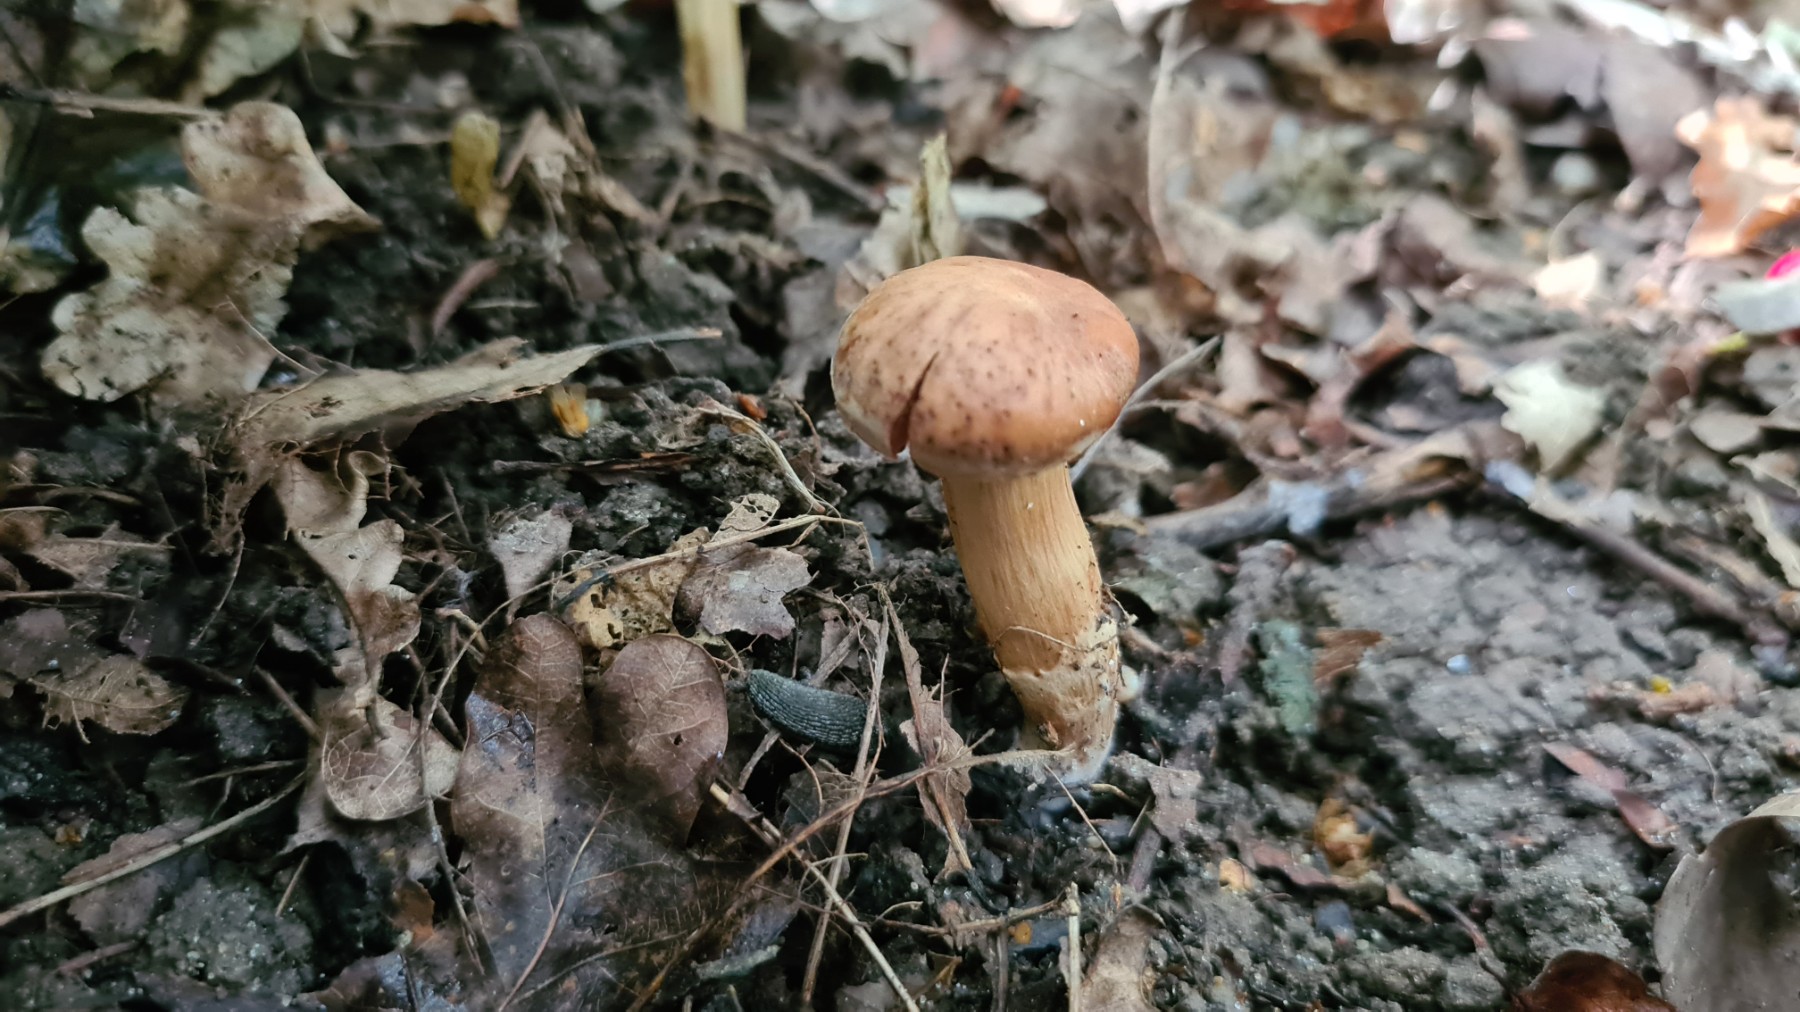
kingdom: Fungi
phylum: Basidiomycota
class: Agaricomycetes
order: Agaricales
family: Cortinariaceae
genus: Cortinarius
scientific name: Cortinarius semiodoratus
